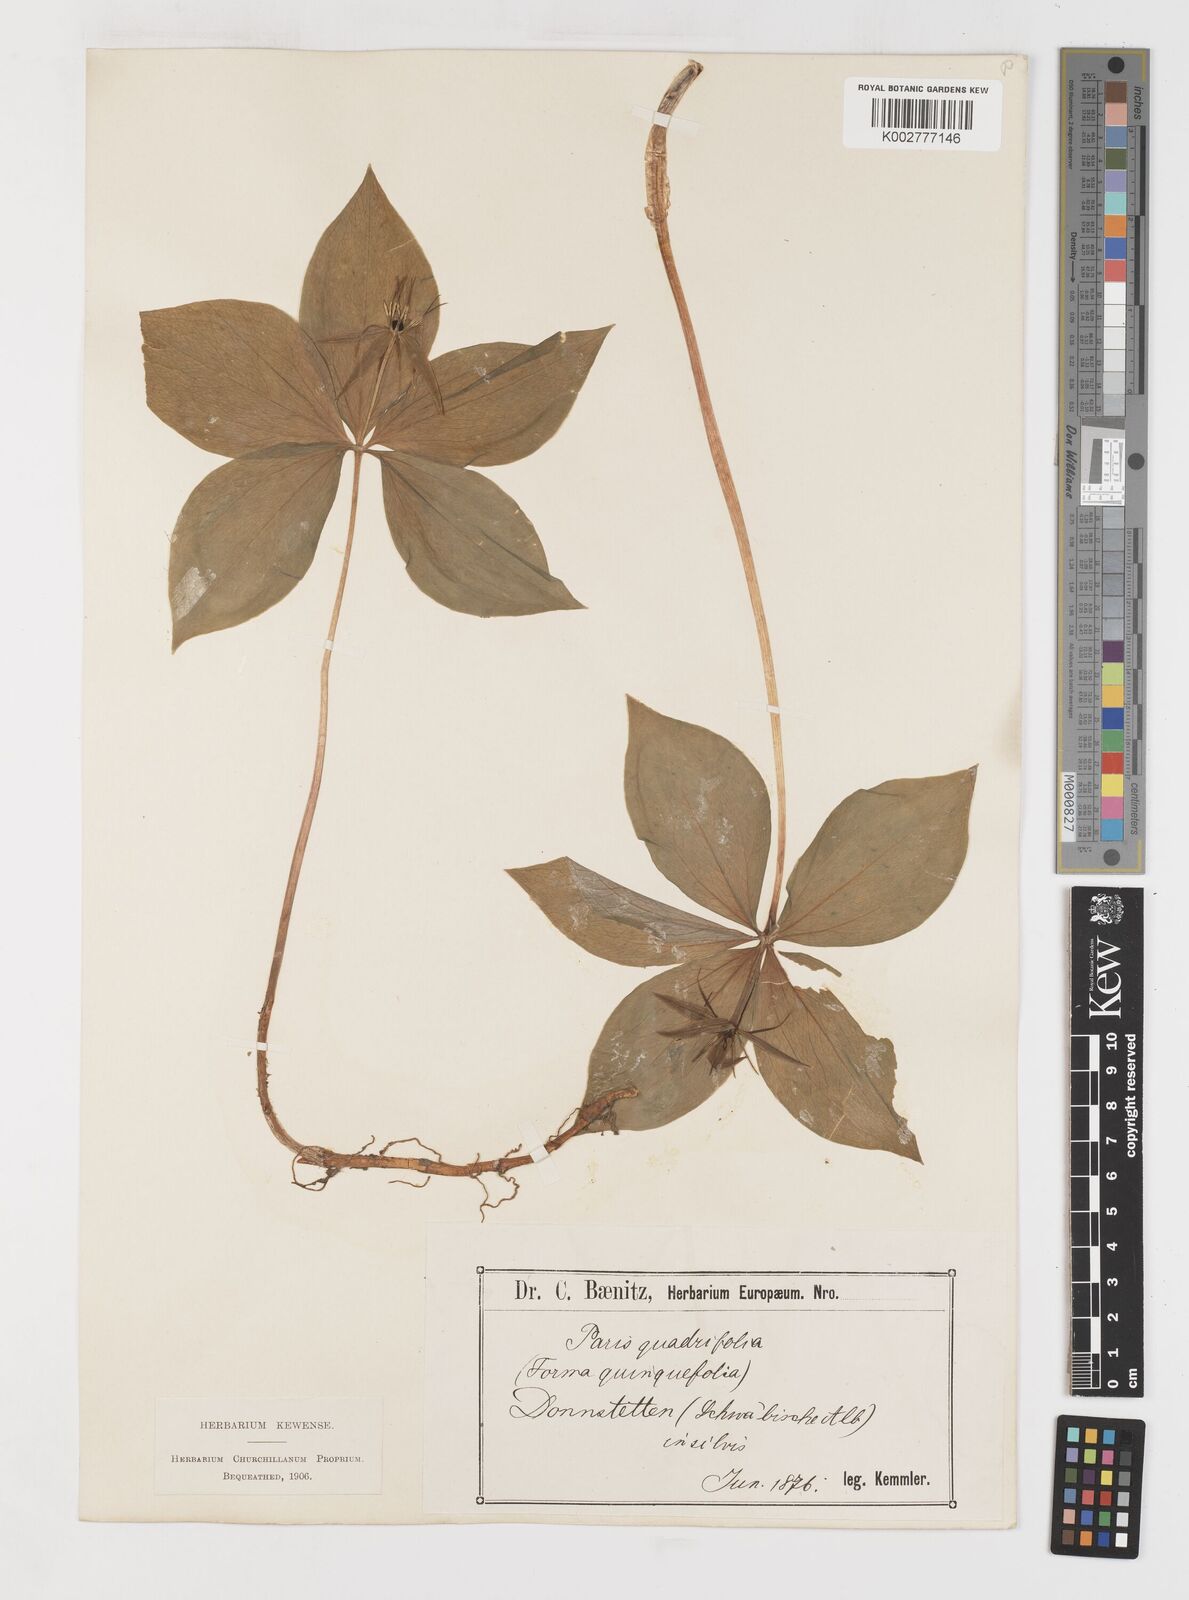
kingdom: Plantae
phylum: Tracheophyta
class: Liliopsida
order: Liliales
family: Melanthiaceae
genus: Paris
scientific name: Paris quadrifolia
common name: Herb-paris
